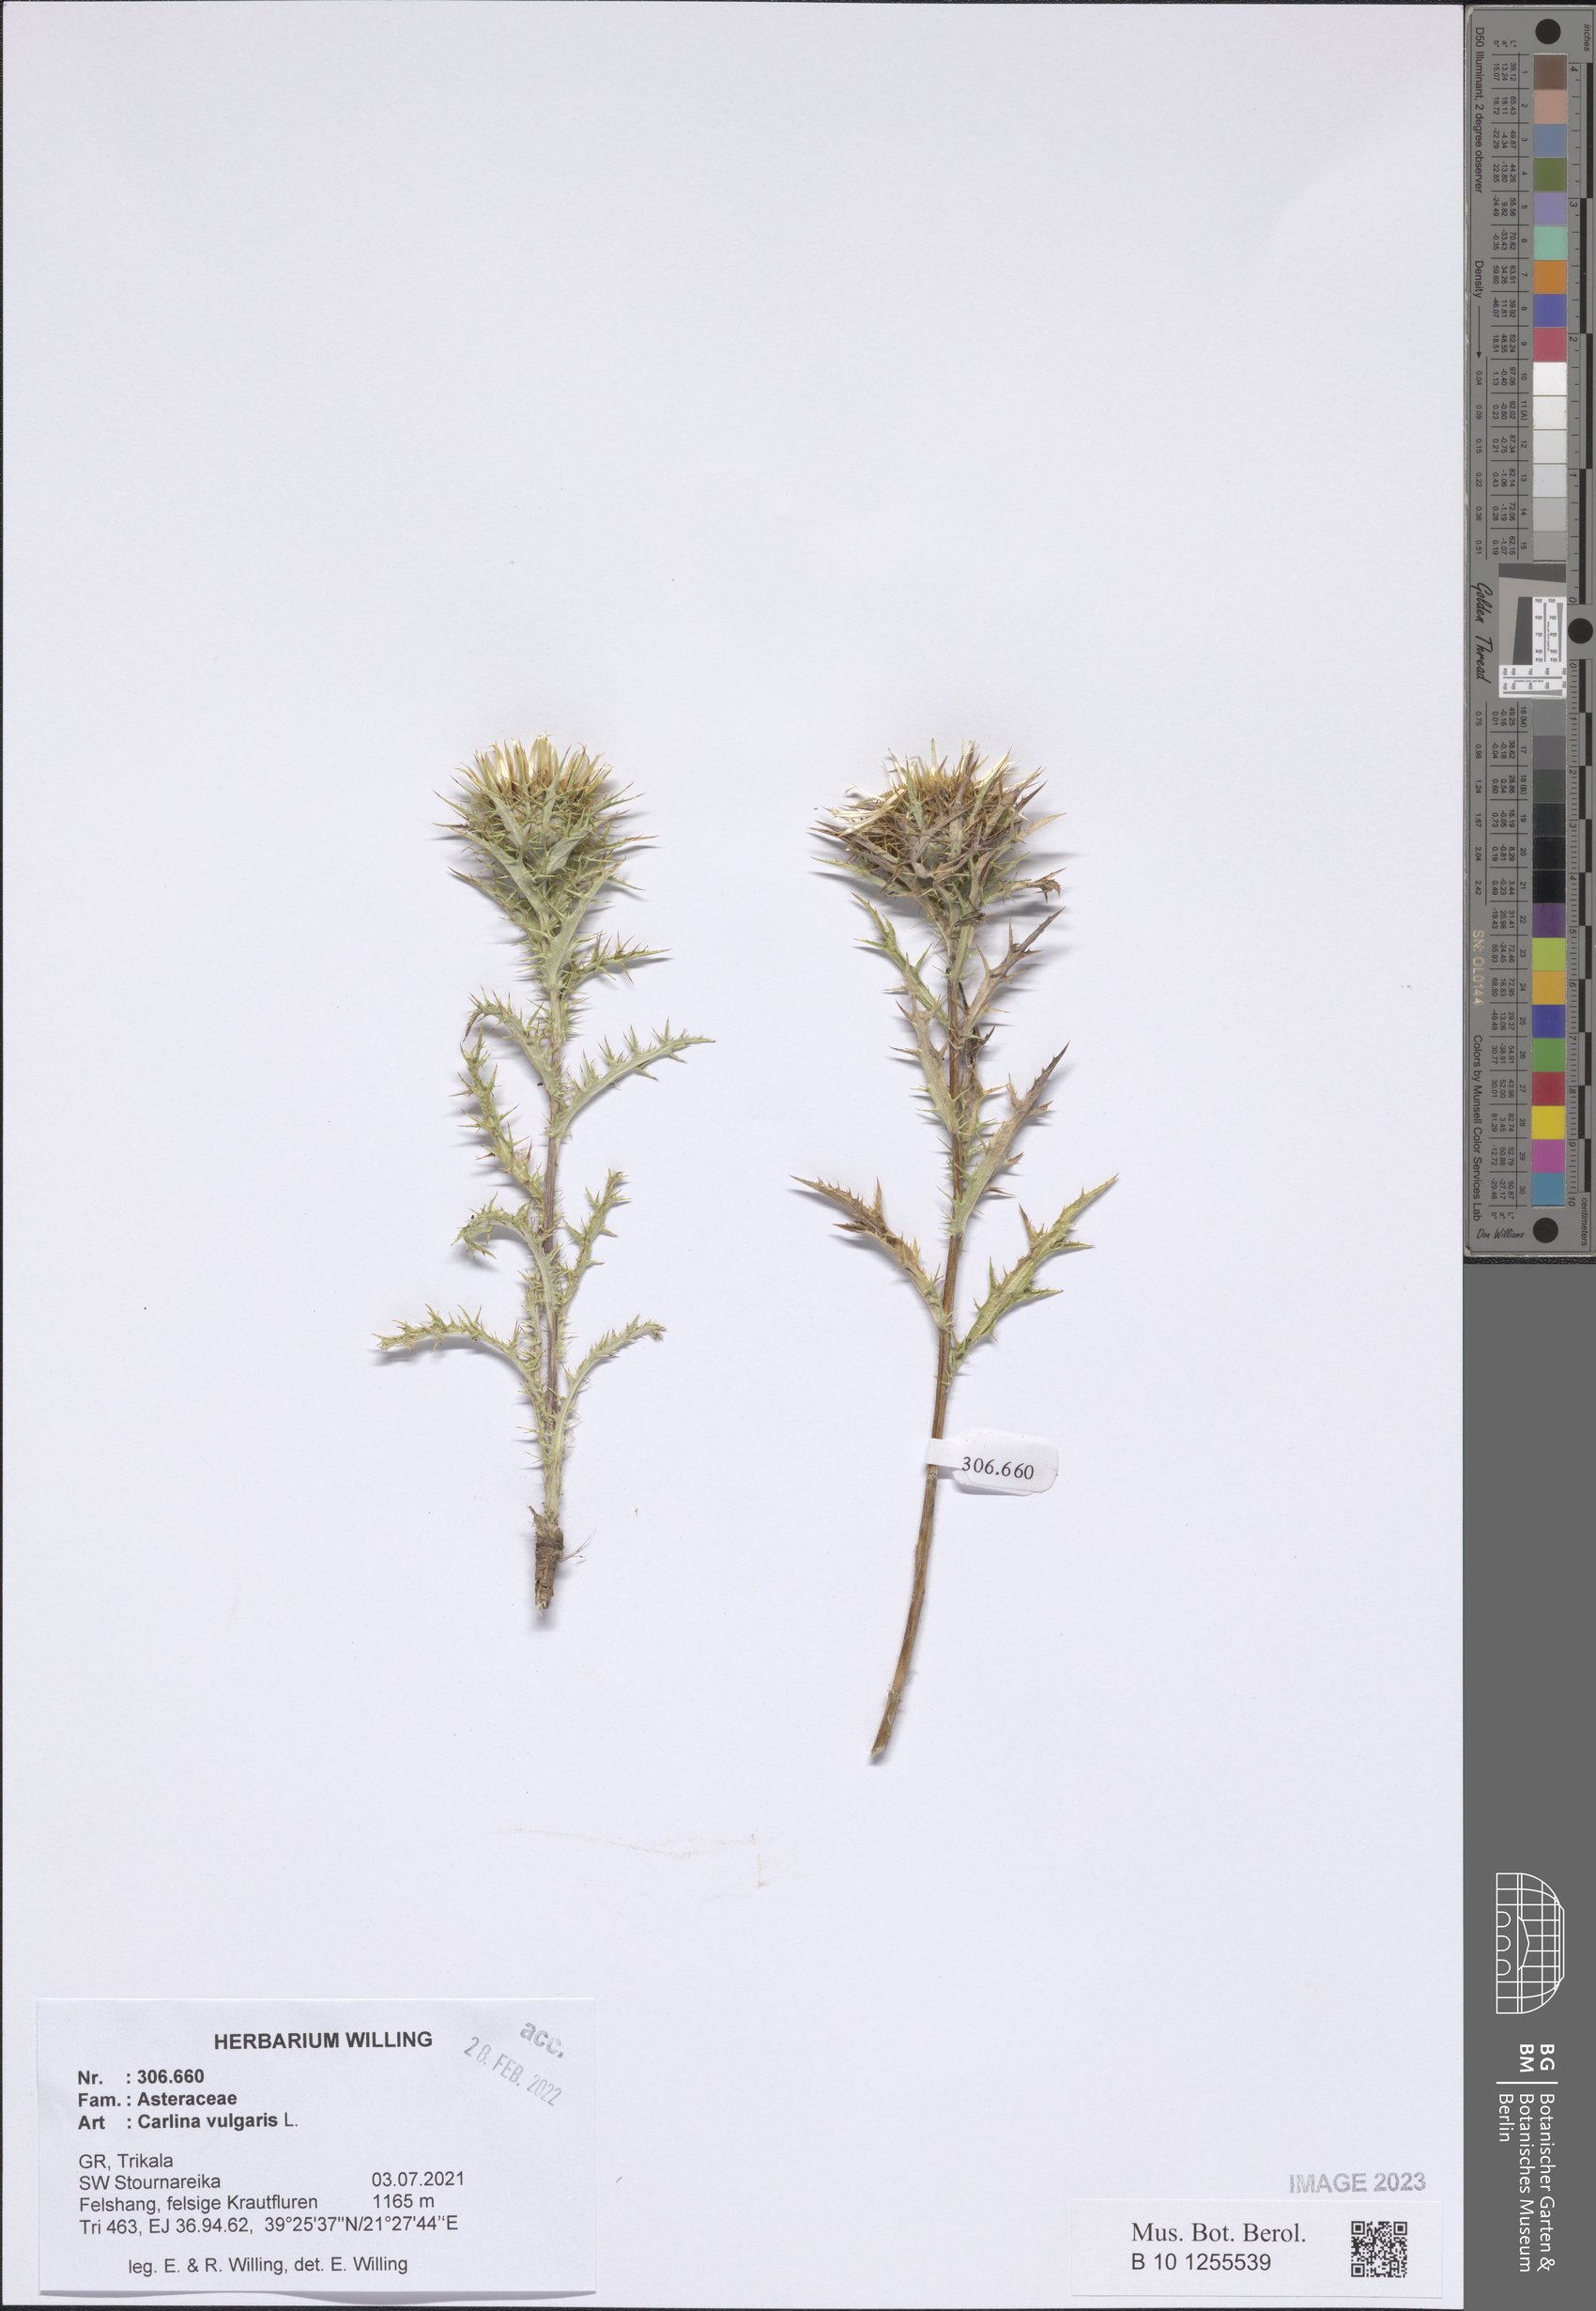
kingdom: Plantae
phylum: Tracheophyta
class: Magnoliopsida
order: Asterales
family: Asteraceae
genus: Carlina
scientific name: Carlina vulgaris
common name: Carline thistle
